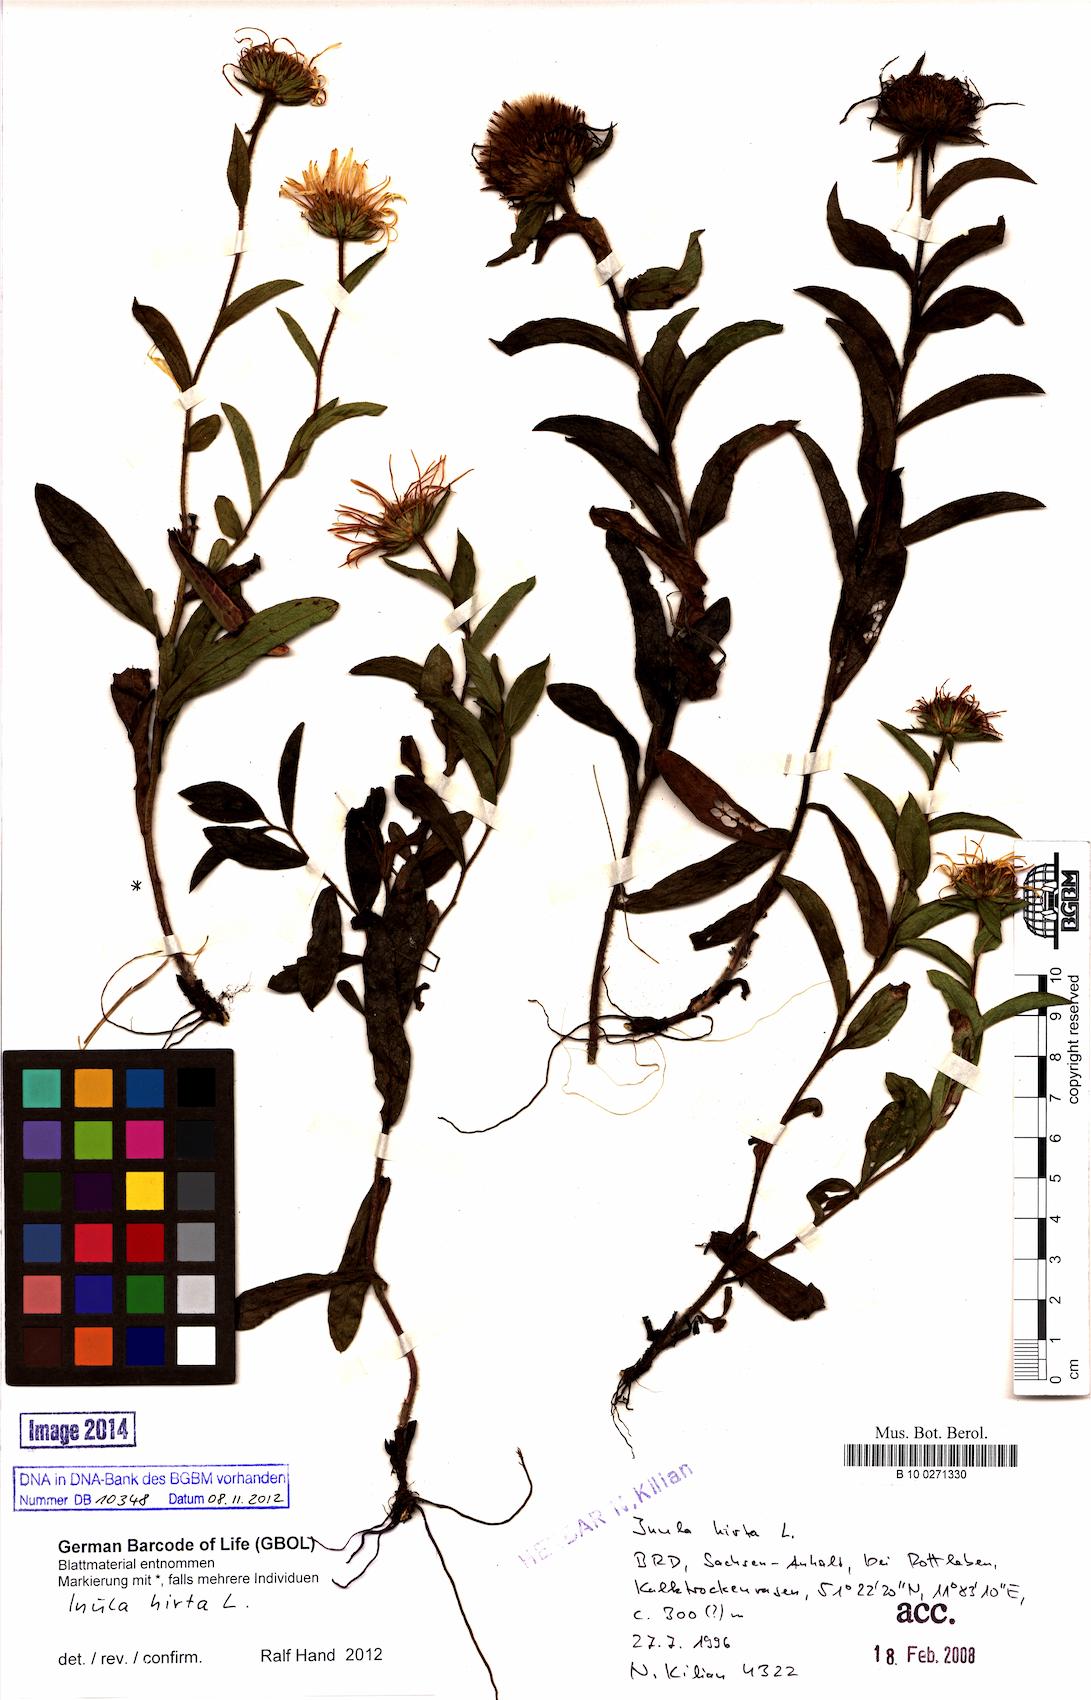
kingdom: Plantae
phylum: Tracheophyta
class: Magnoliopsida
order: Asterales
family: Asteraceae
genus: Pentanema
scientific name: Pentanema hirtum
